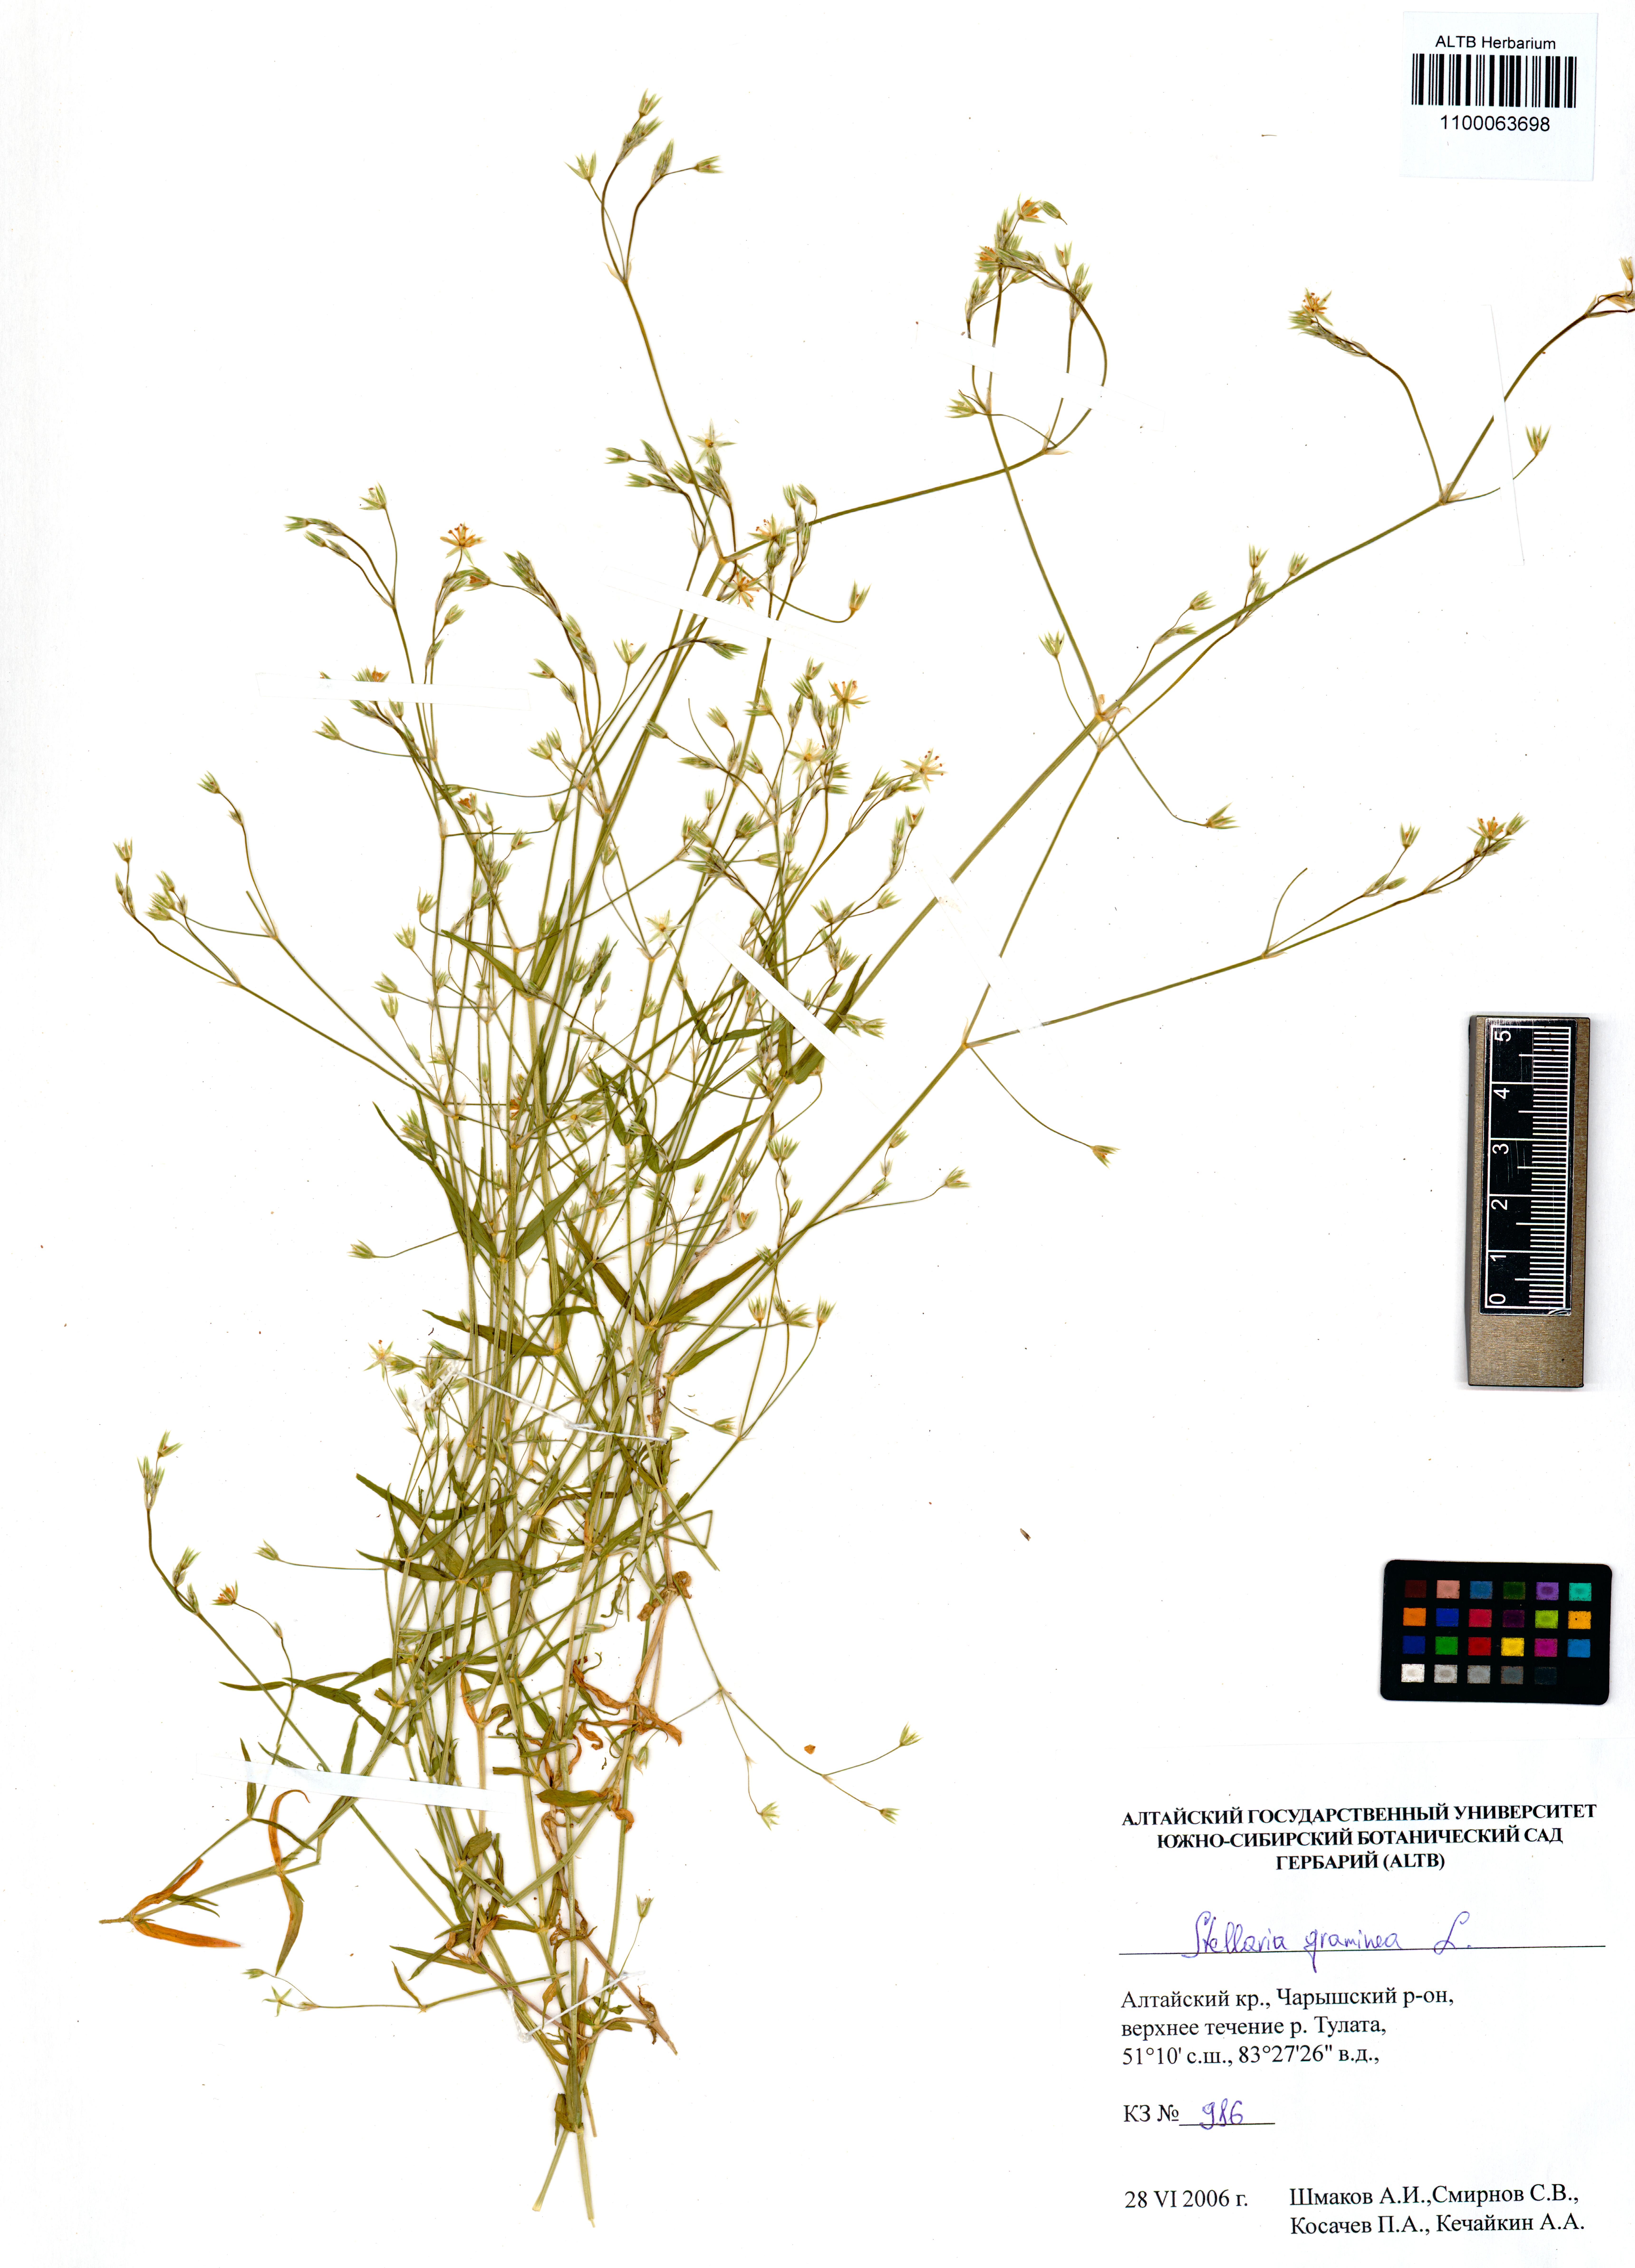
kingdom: Plantae
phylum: Tracheophyta
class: Magnoliopsida
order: Caryophyllales
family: Caryophyllaceae
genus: Stellaria
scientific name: Stellaria graminea
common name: Grass-like starwort
